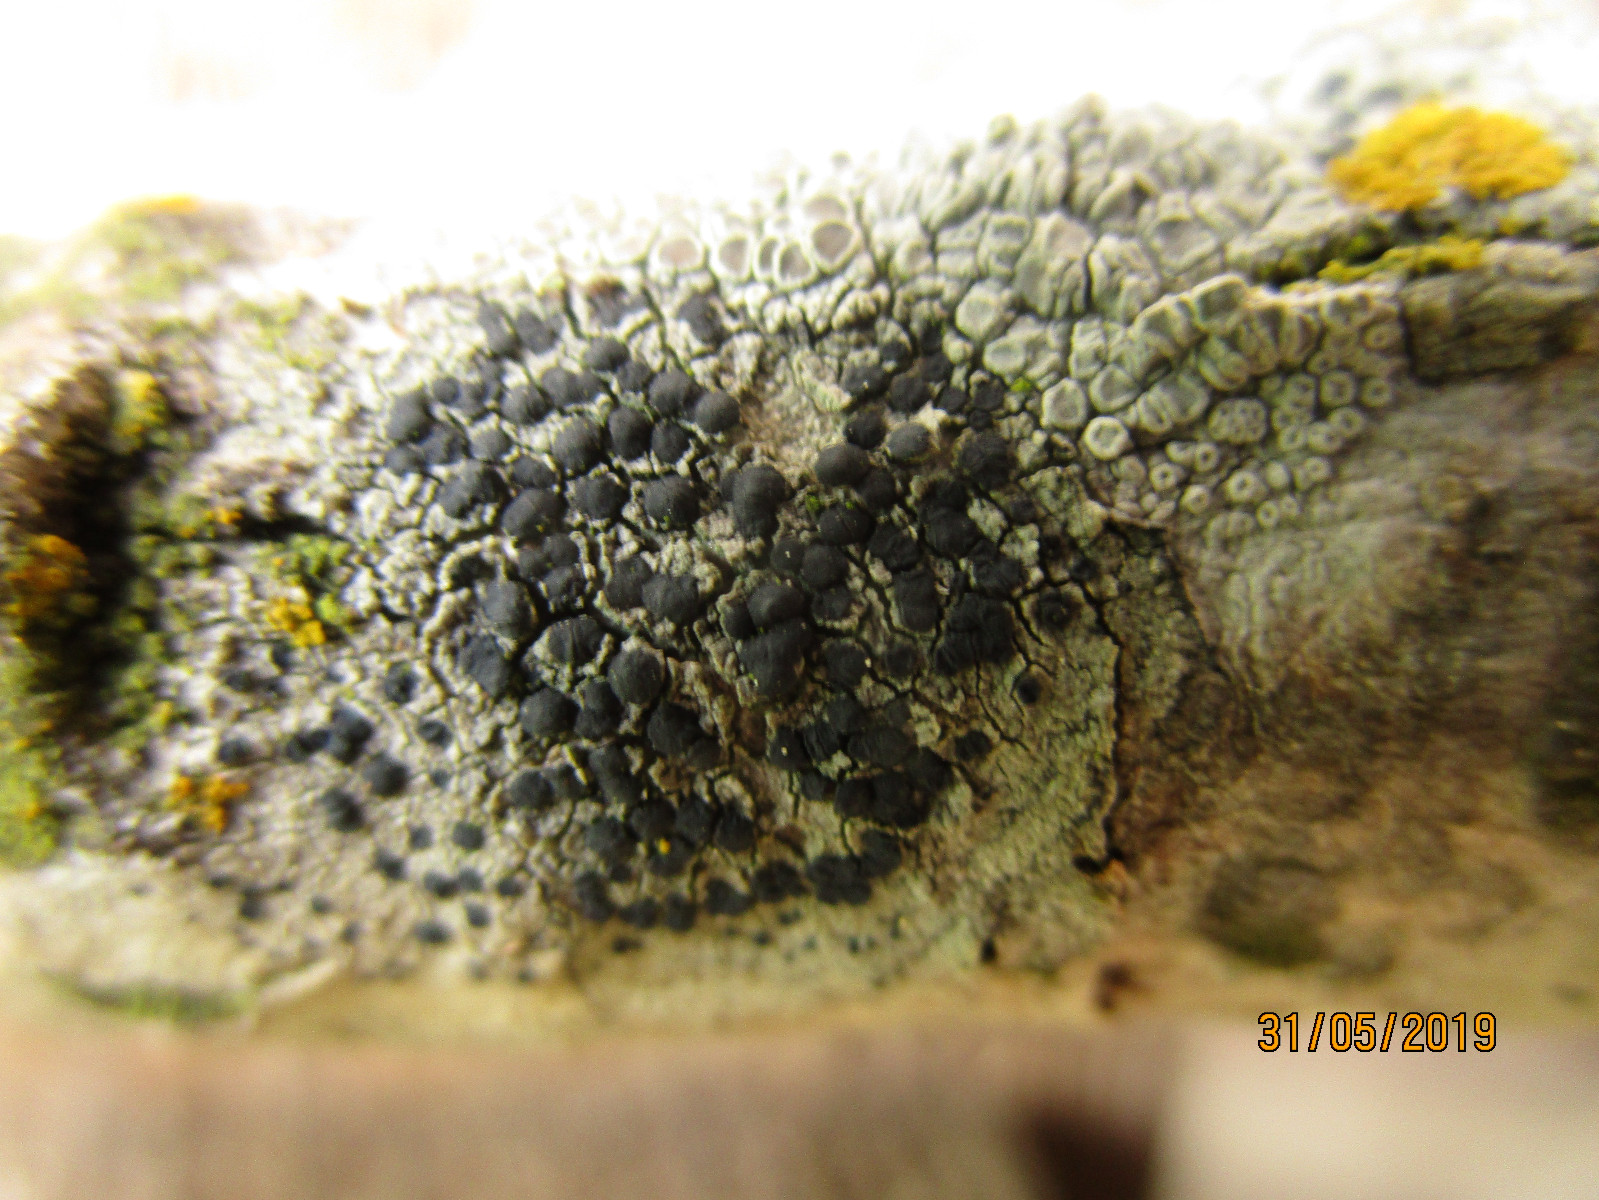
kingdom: Fungi
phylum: Ascomycota
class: Lecanoromycetes
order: Lecanorales
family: Lecanoraceae
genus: Lecidella
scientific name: Lecidella
